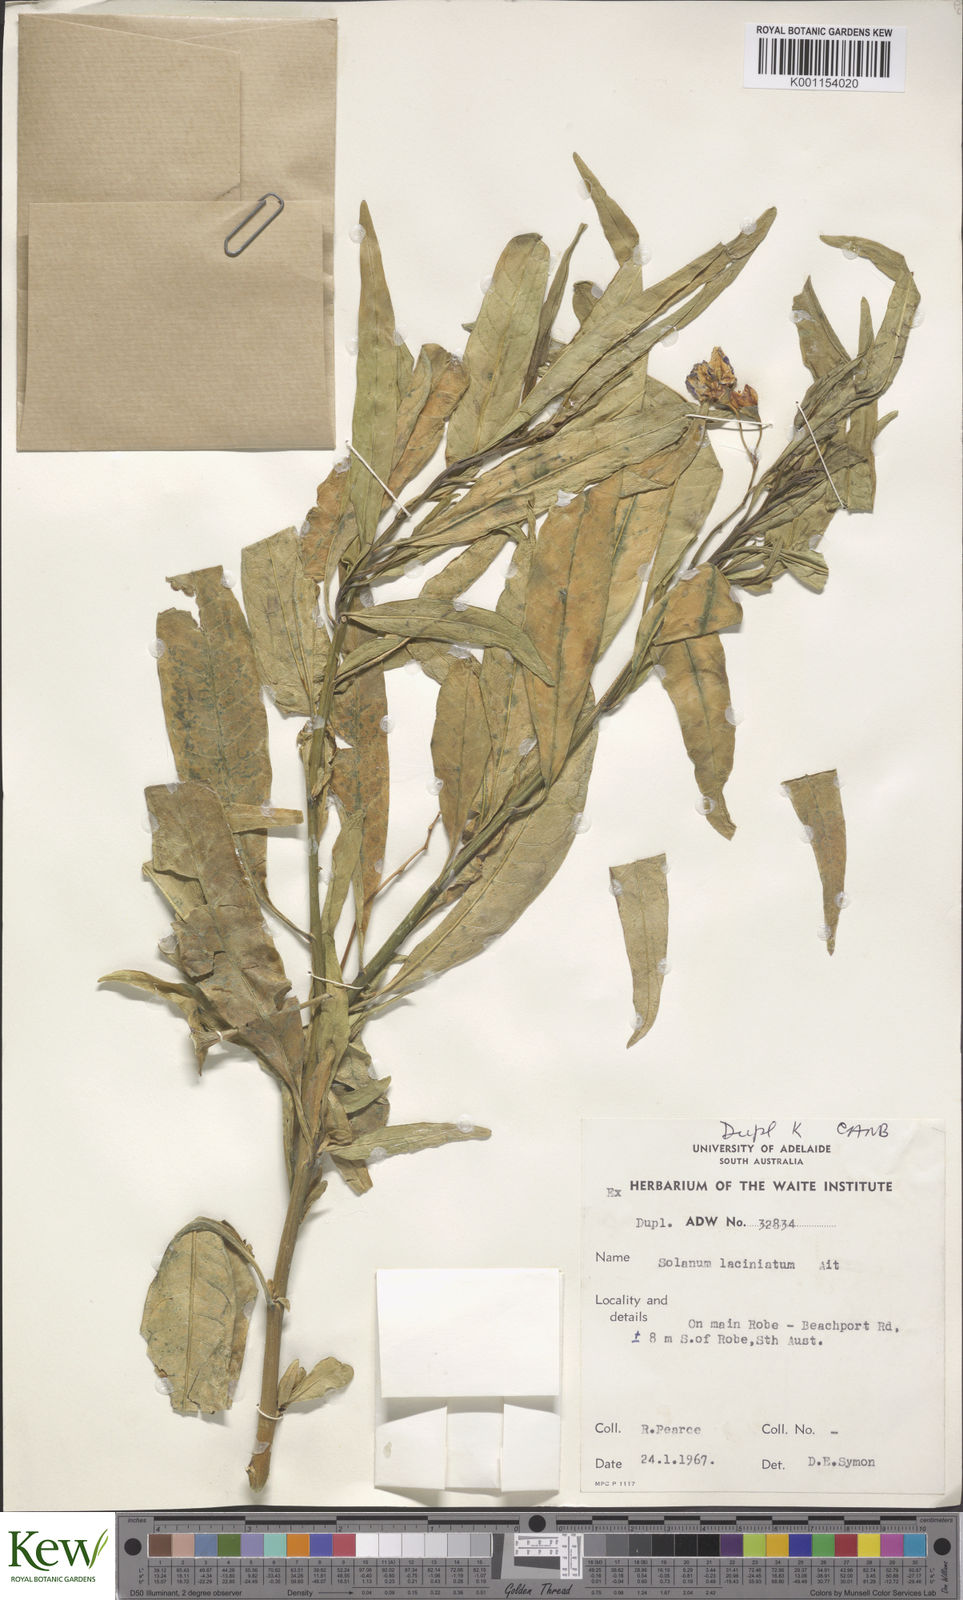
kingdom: Plantae
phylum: Tracheophyta
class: Magnoliopsida
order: Solanales
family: Solanaceae
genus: Solanum
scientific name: Solanum laciniatum
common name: Kangaroo-apple
